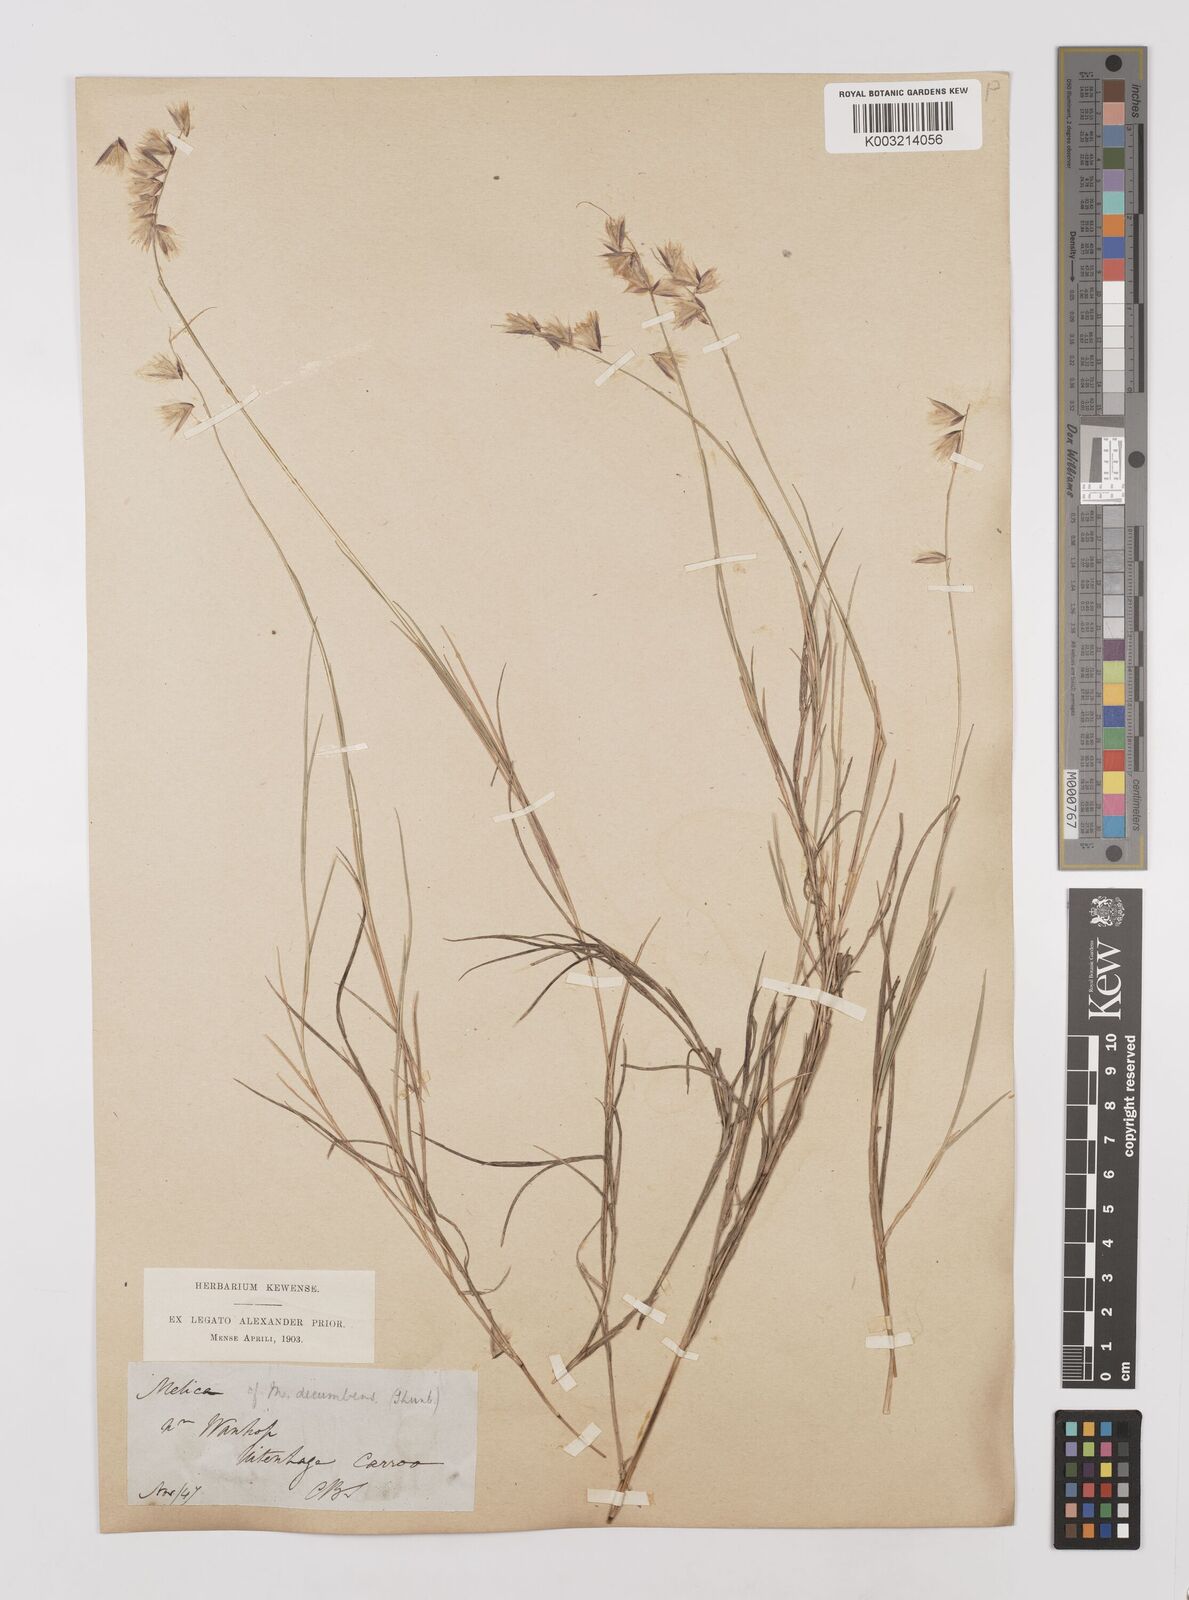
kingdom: Plantae
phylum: Tracheophyta
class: Liliopsida
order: Poales
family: Poaceae
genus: Melica
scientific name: Melica dendroides
